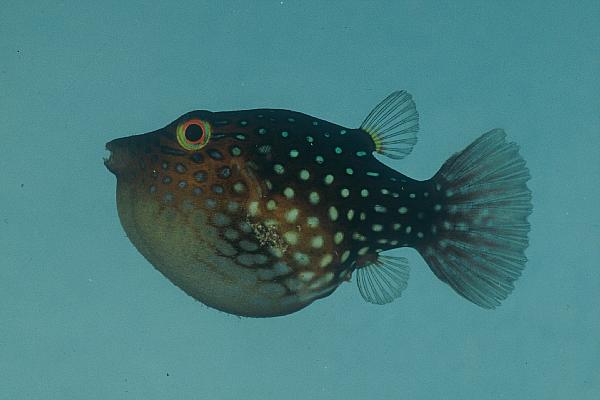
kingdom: Animalia
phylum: Chordata
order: Tetraodontiformes
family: Tetraodontidae
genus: Canthigaster
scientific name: Canthigaster solandri
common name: False-eye toby
